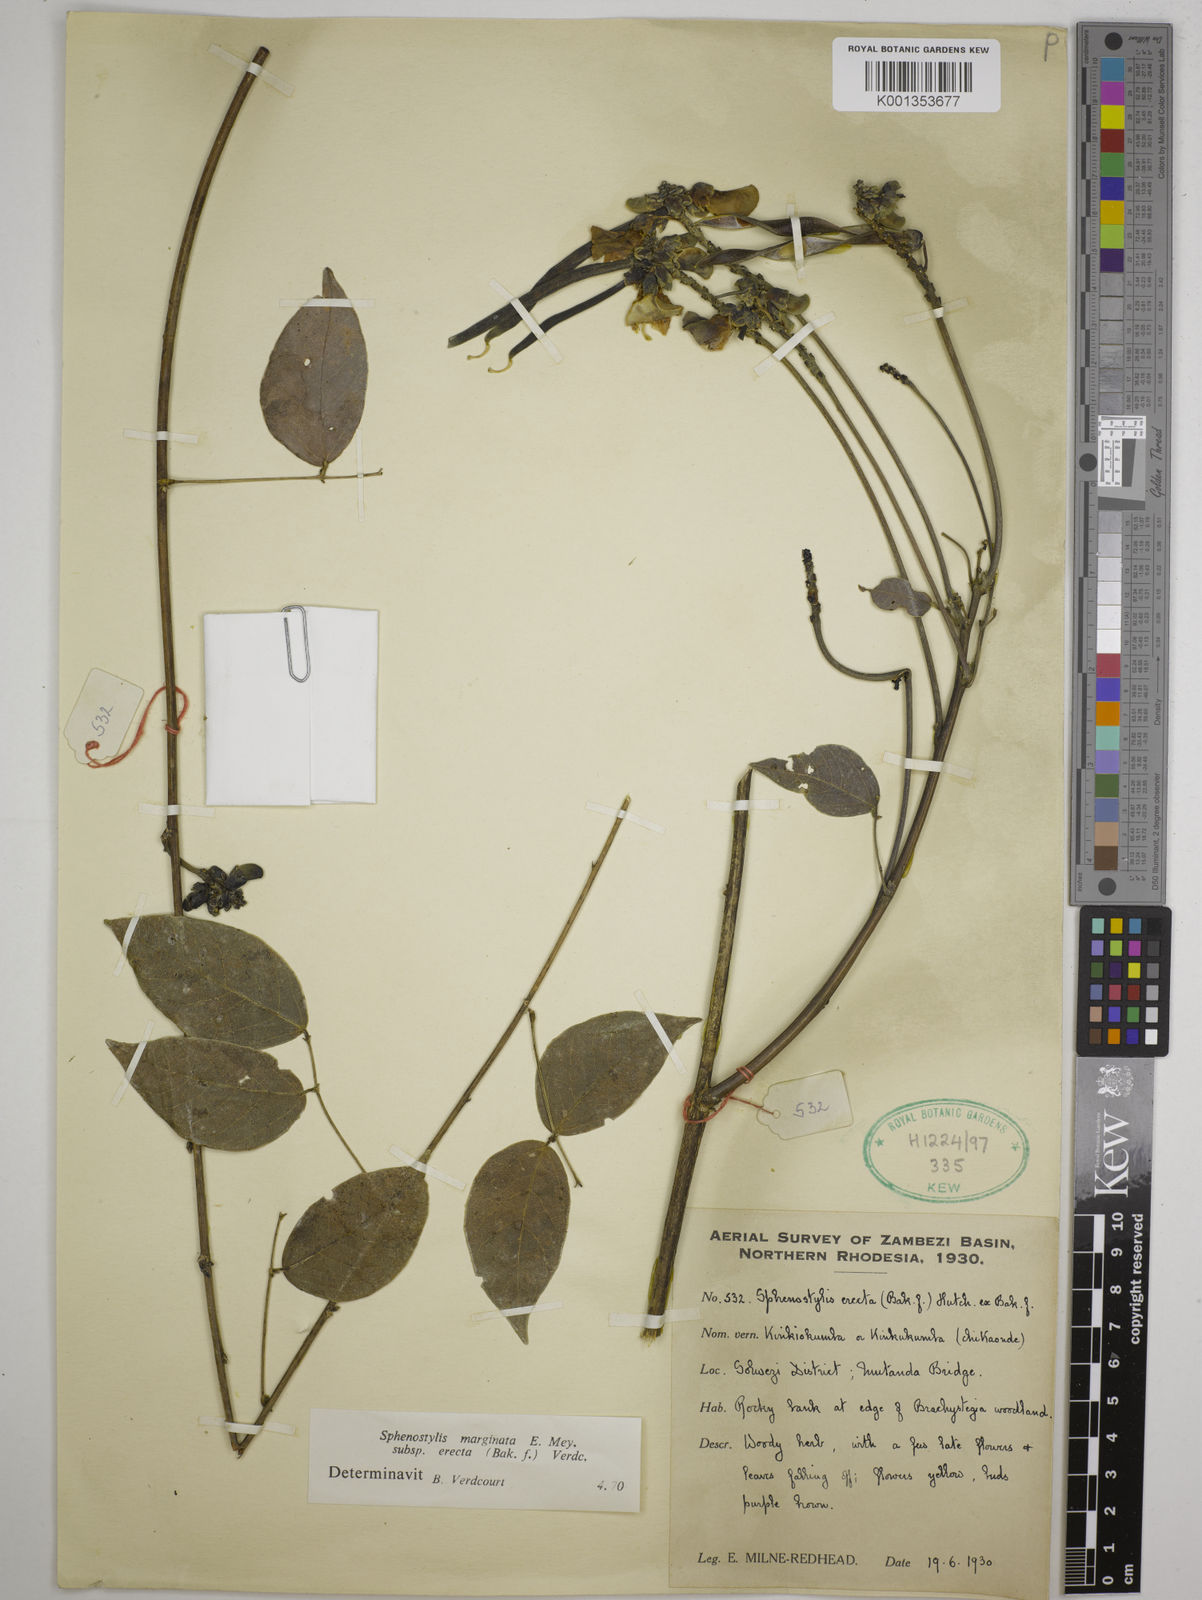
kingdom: Plantae
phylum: Tracheophyta
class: Magnoliopsida
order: Fabales
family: Fabaceae
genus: Sphenostylis
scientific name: Sphenostylis erecta
